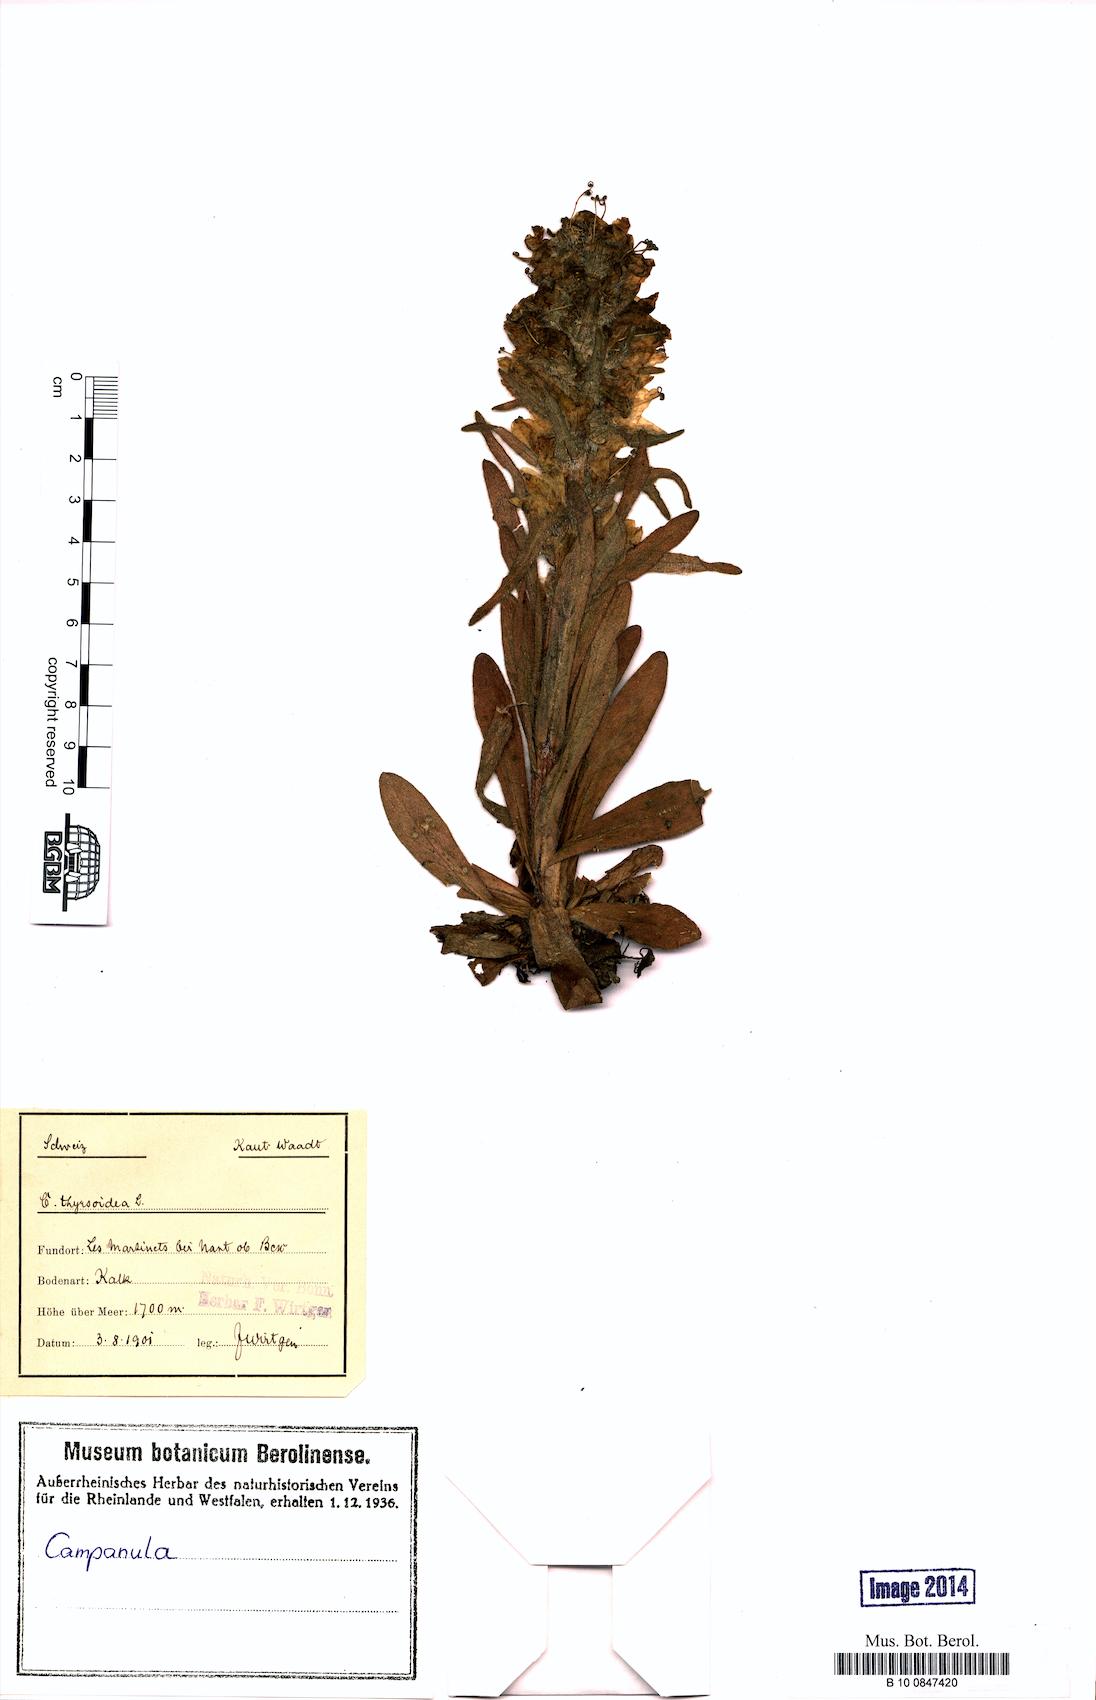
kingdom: Plantae
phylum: Tracheophyta
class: Magnoliopsida
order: Asterales
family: Campanulaceae
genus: Campanula
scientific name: Campanula thyrsoides
